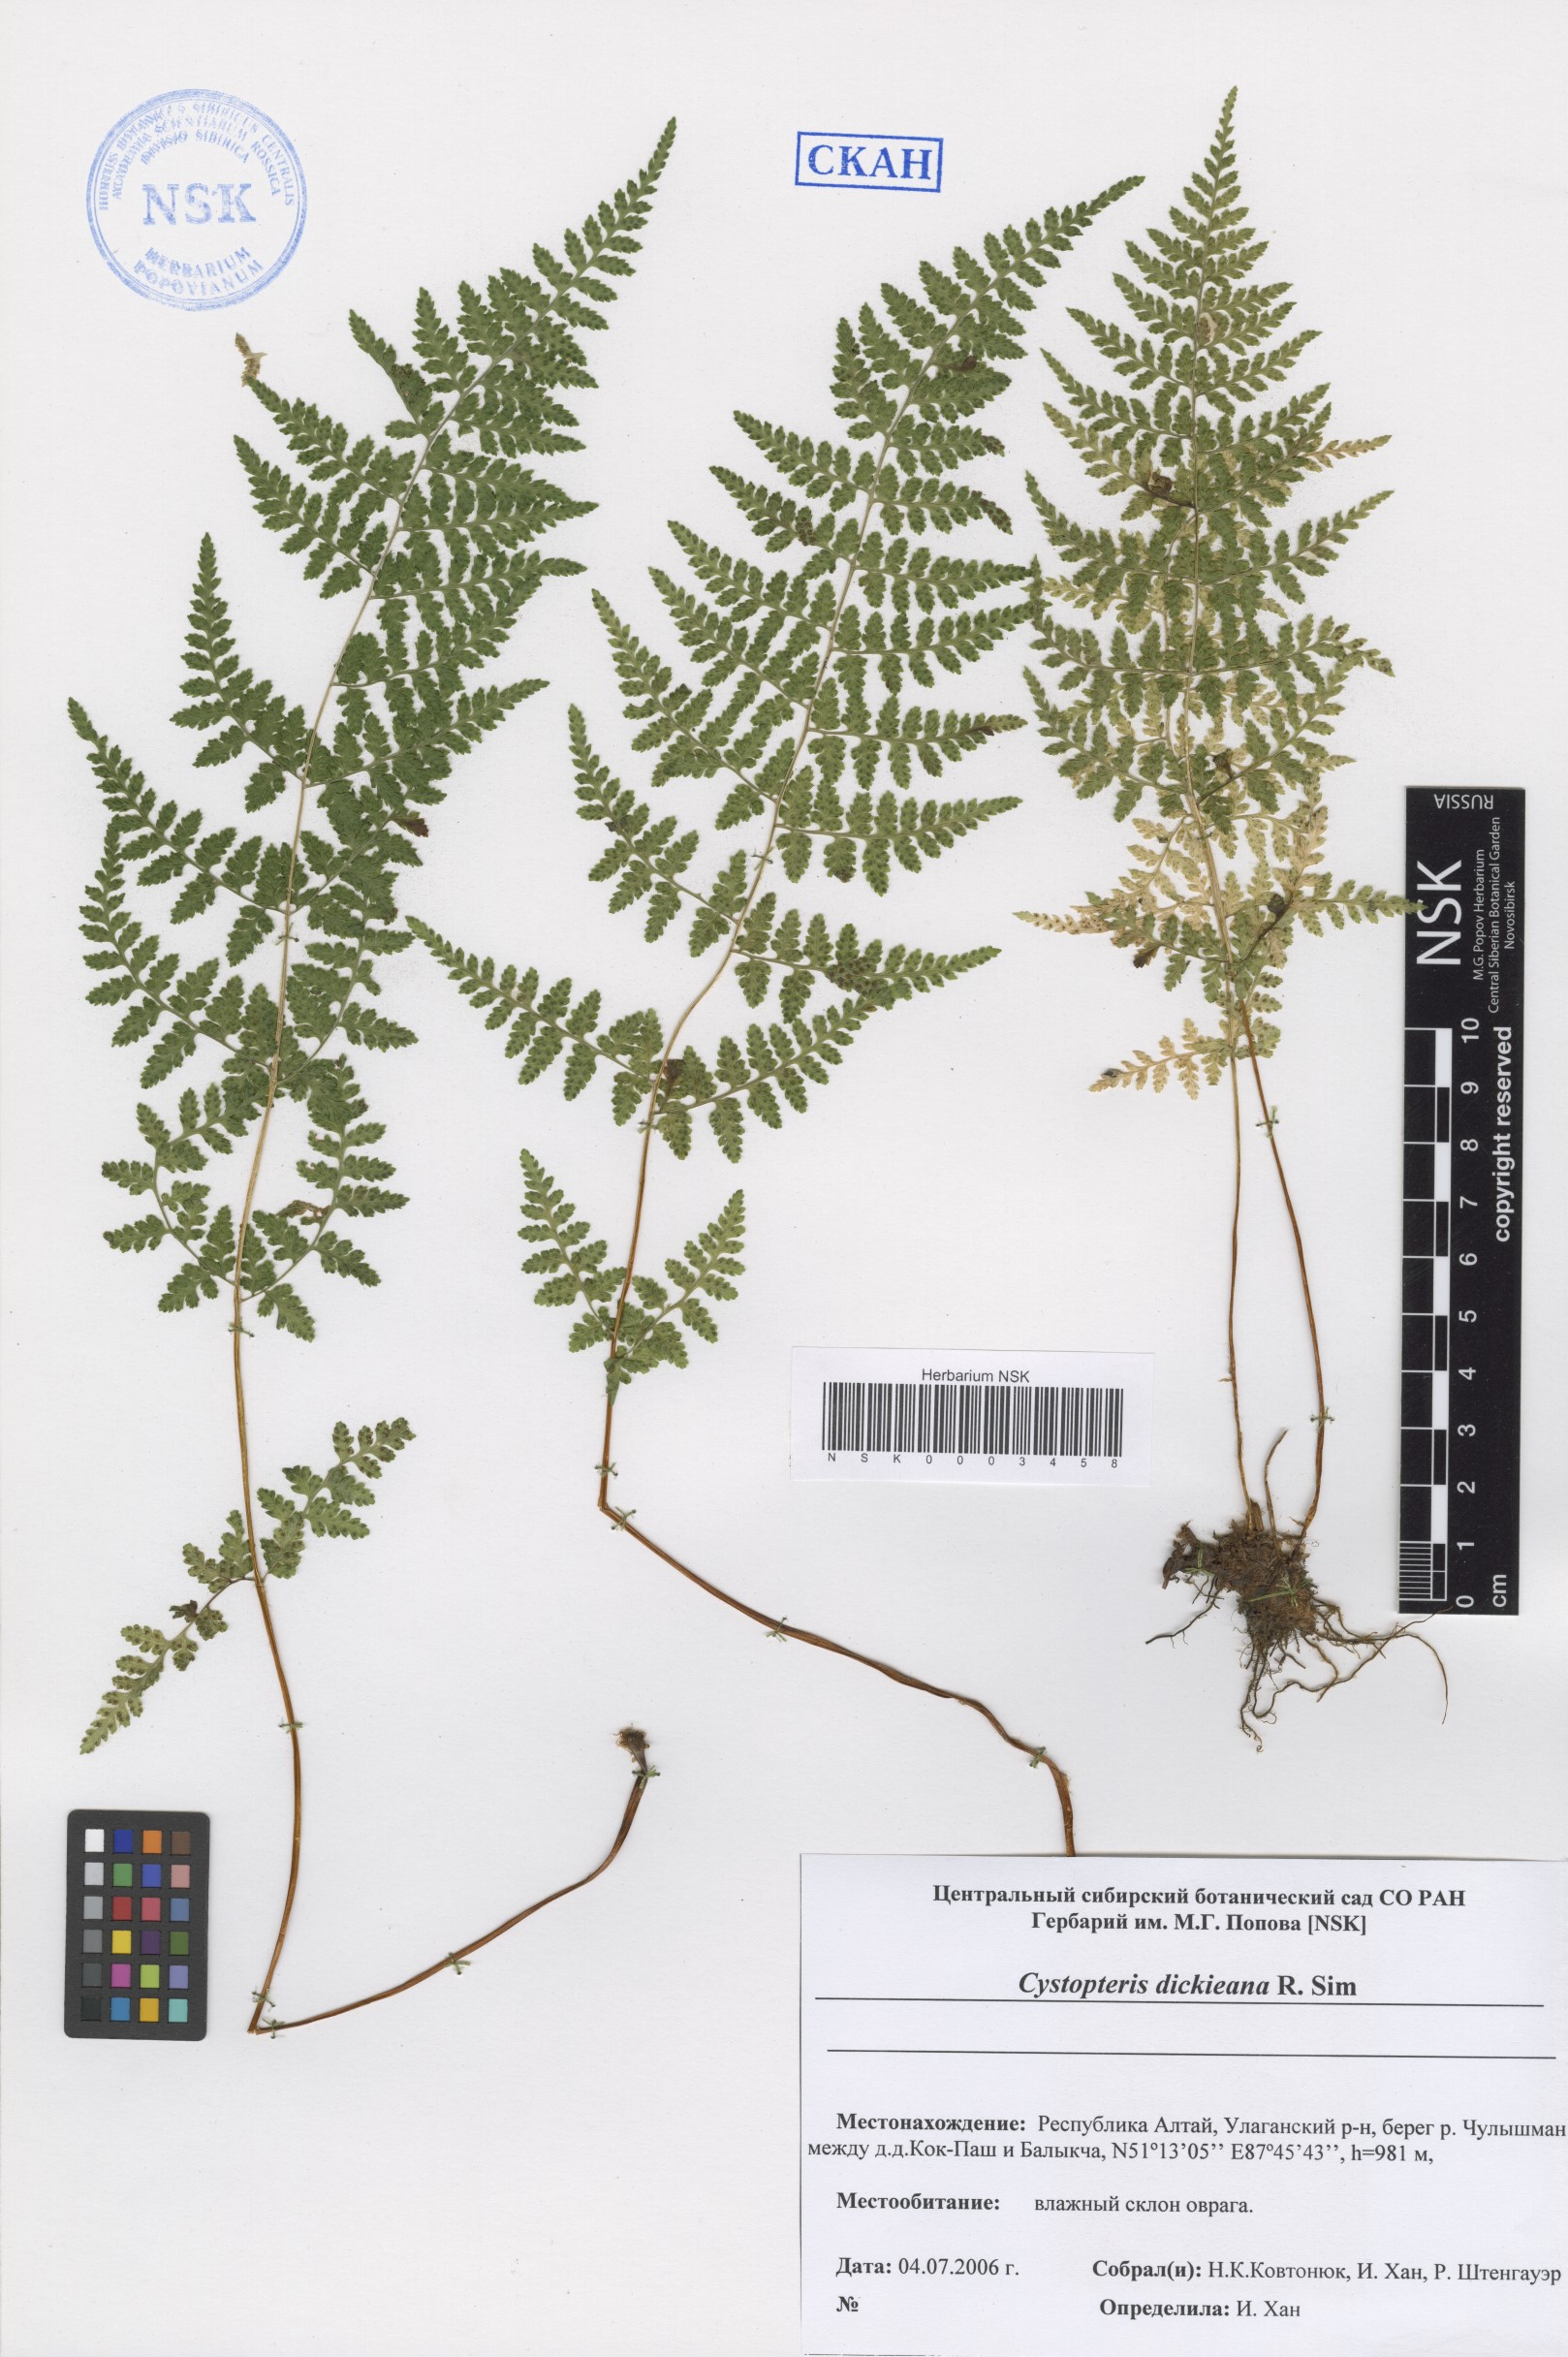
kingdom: Plantae
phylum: Tracheophyta
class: Polypodiopsida
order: Polypodiales
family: Cystopteridaceae
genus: Cystopteris
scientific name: Cystopteris dickieana
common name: Dickie's bladder-fern
